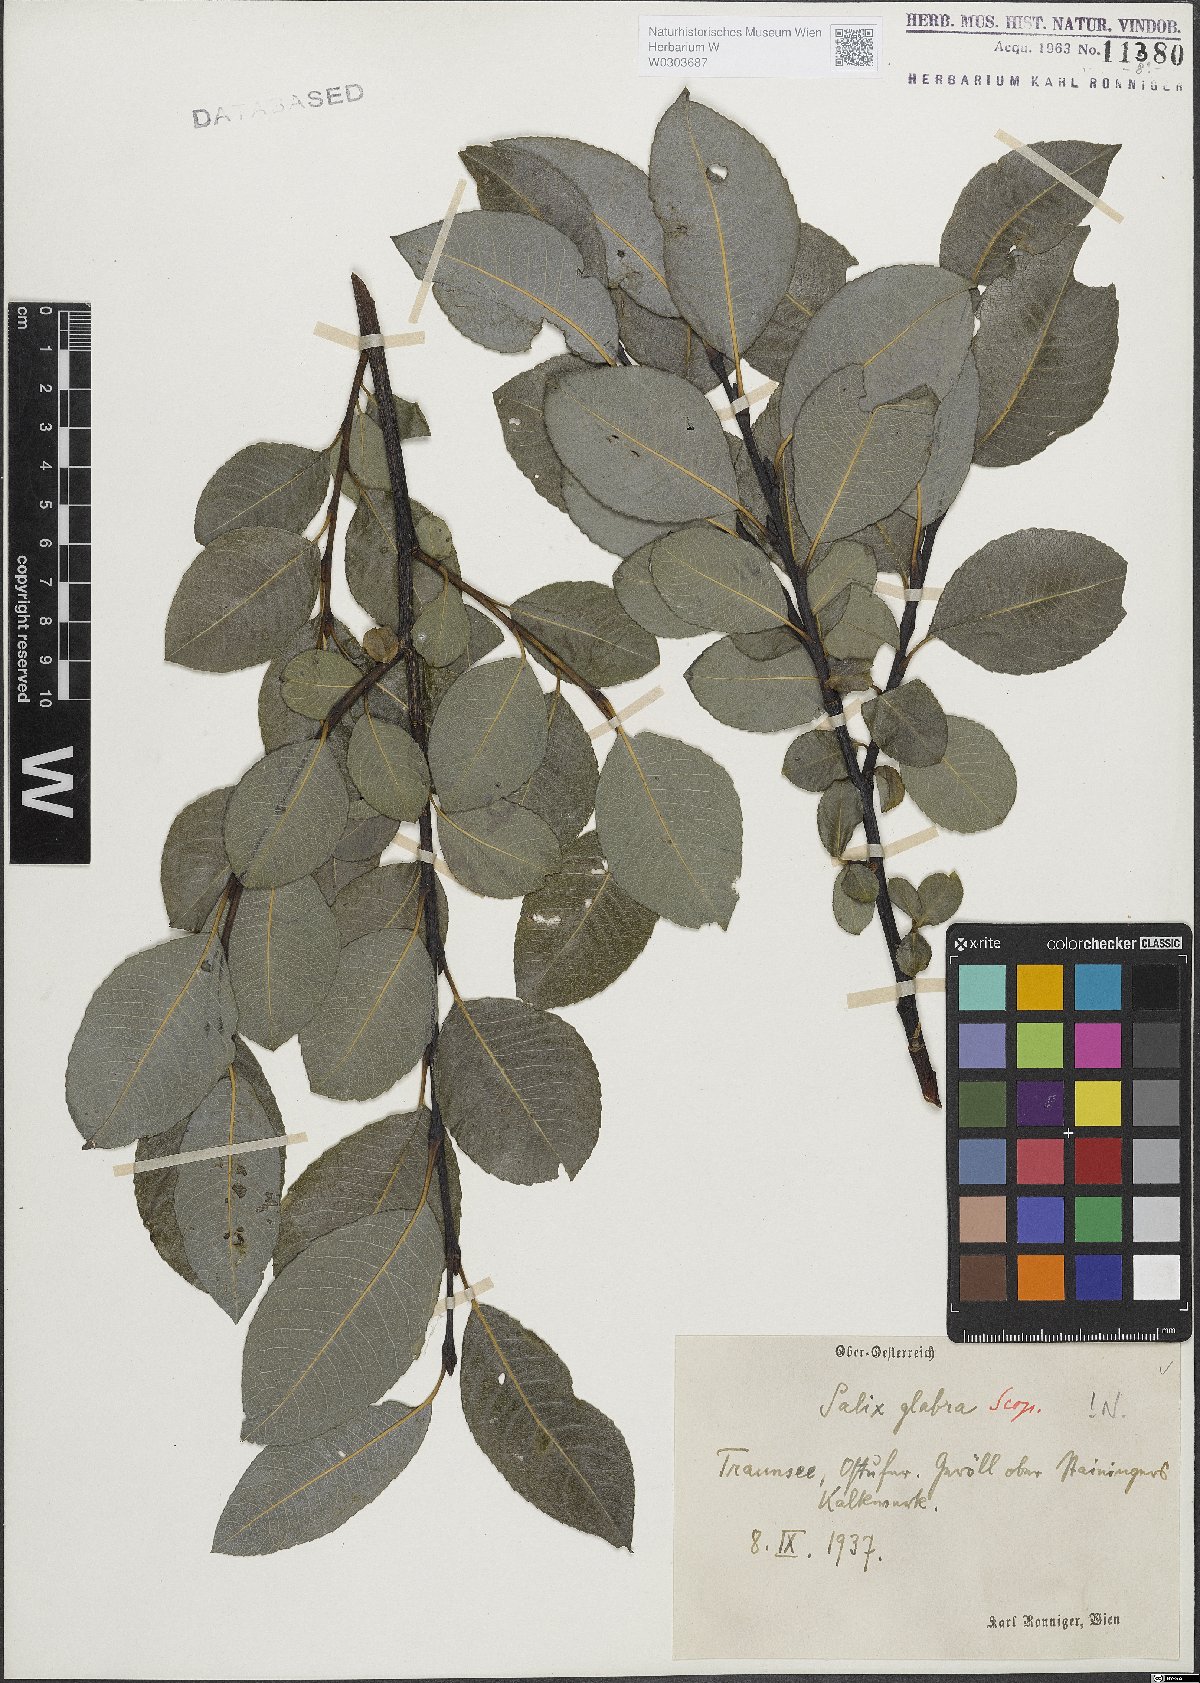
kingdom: Plantae
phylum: Tracheophyta
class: Magnoliopsida
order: Malpighiales
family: Salicaceae
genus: Salix
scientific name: Salix glabra
